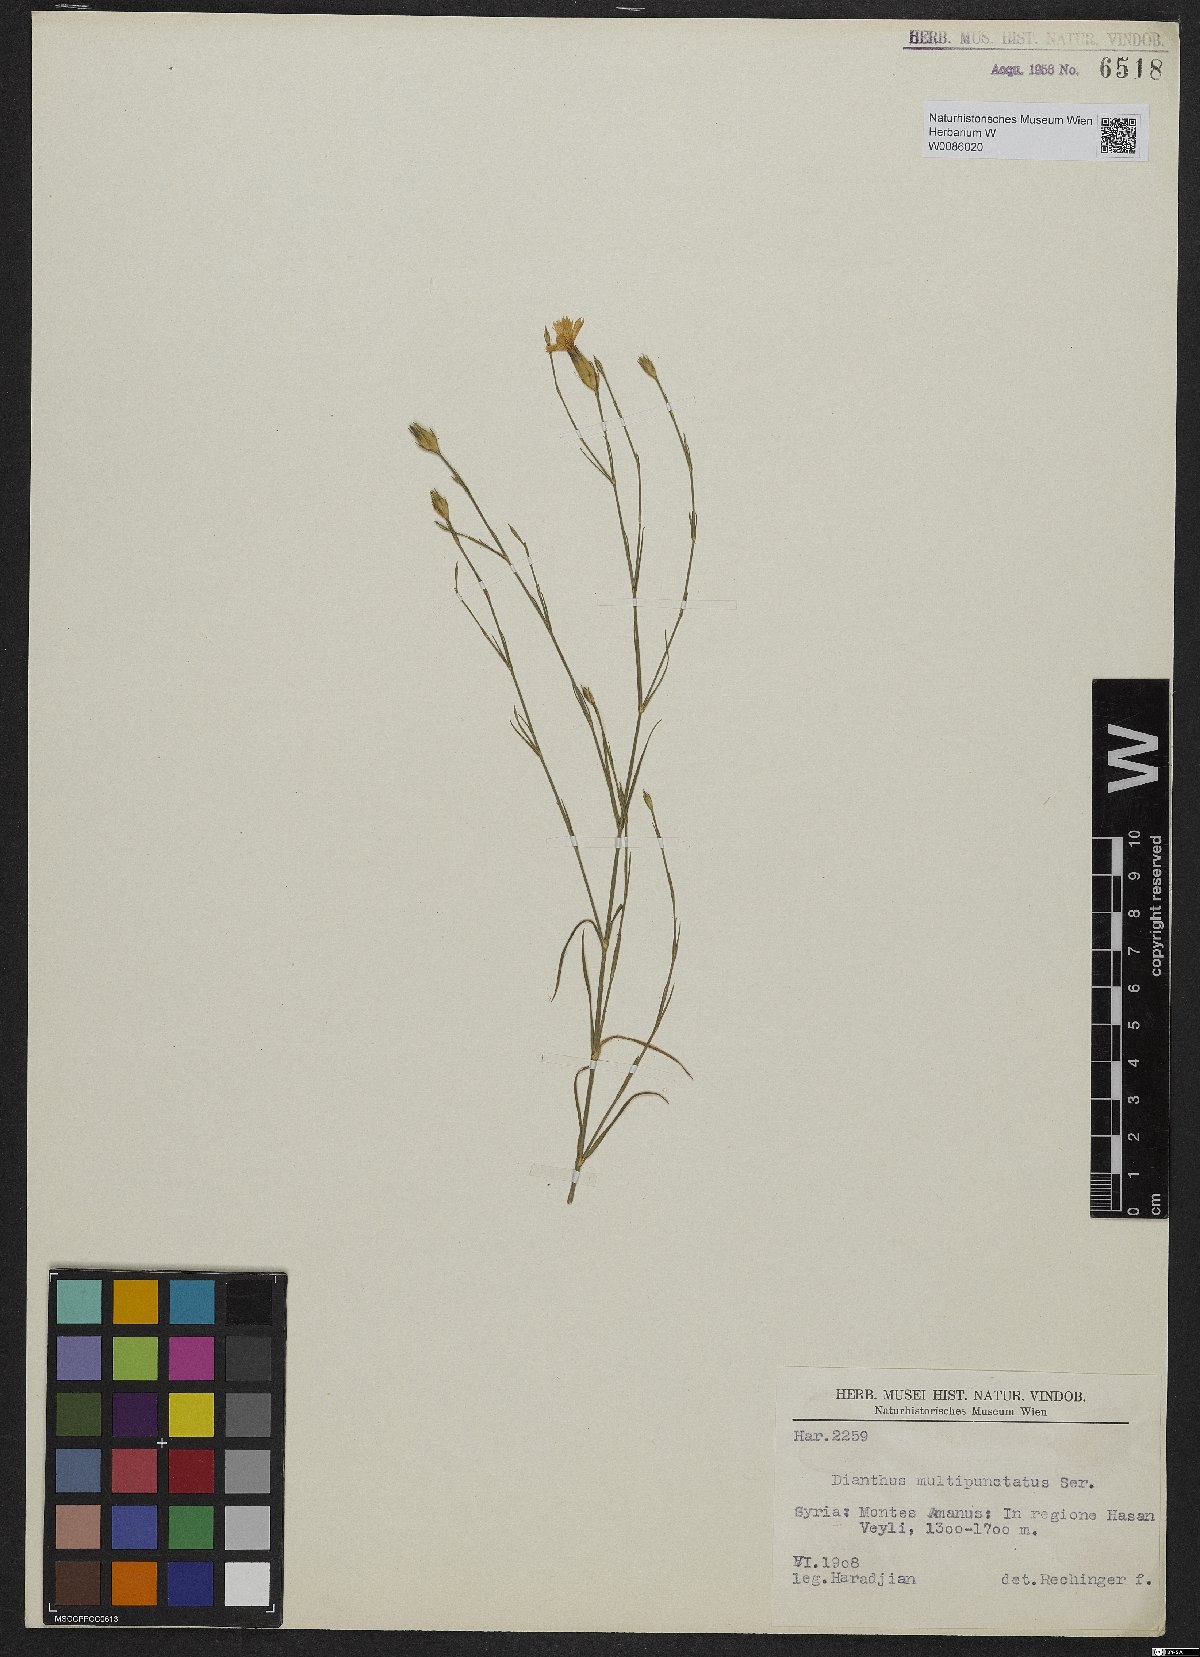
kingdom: Plantae
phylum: Tracheophyta
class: Magnoliopsida
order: Caryophyllales
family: Caryophyllaceae
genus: Dianthus
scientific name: Dianthus strictus
